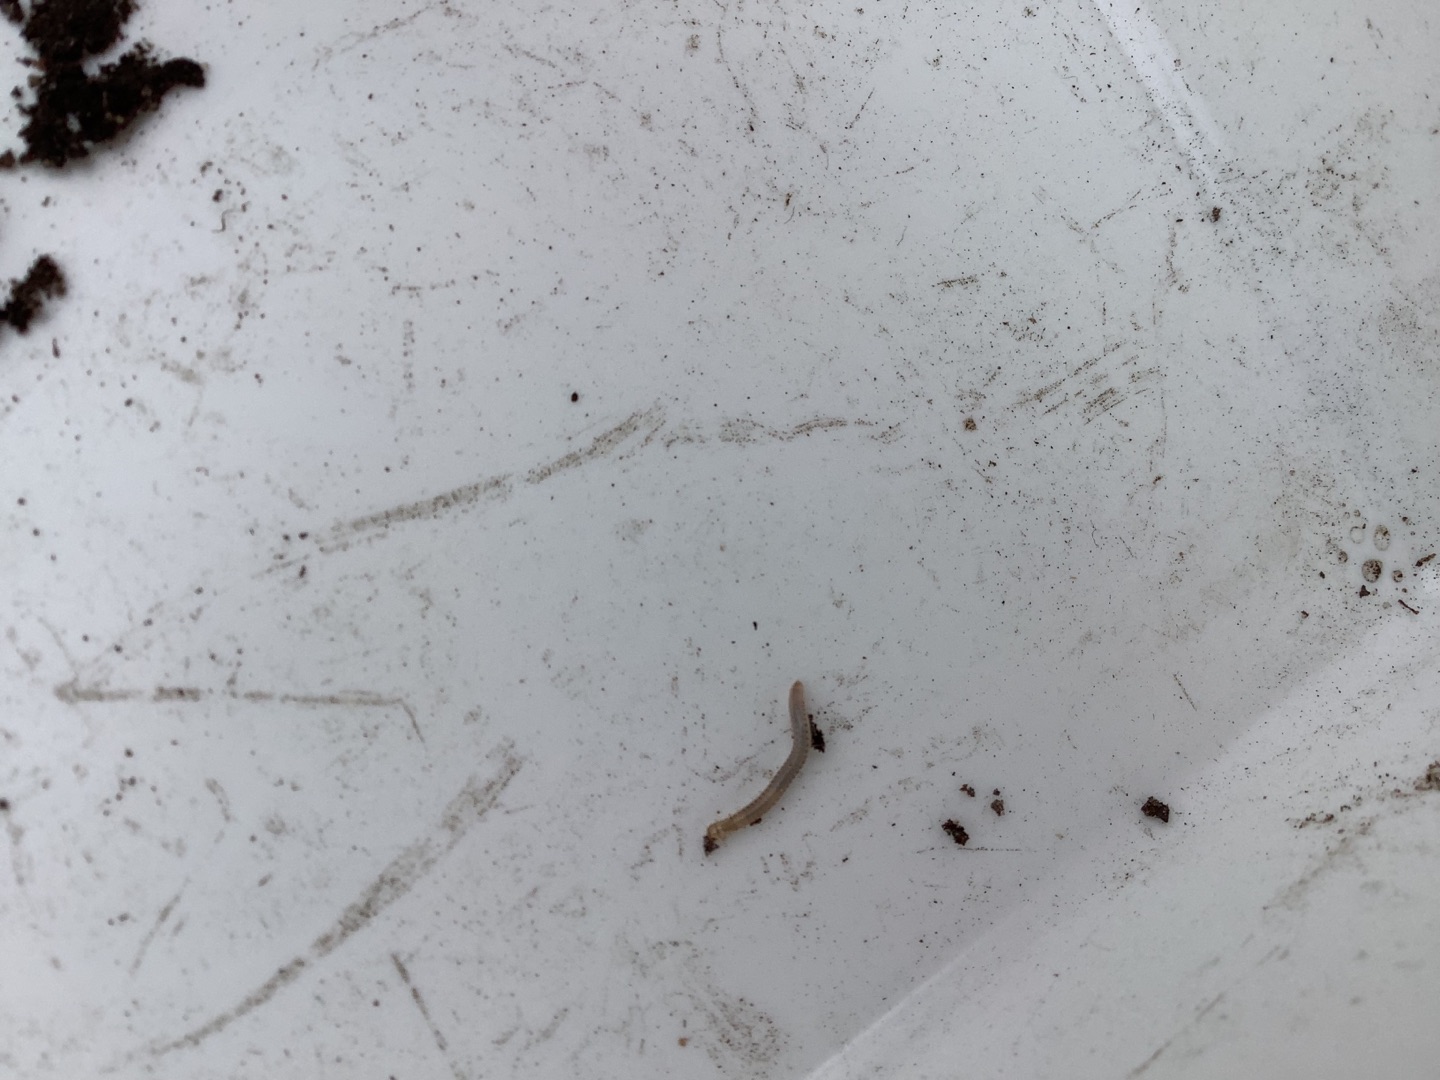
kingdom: Animalia
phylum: Arthropoda
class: Diplopoda
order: Julida
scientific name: Julida
